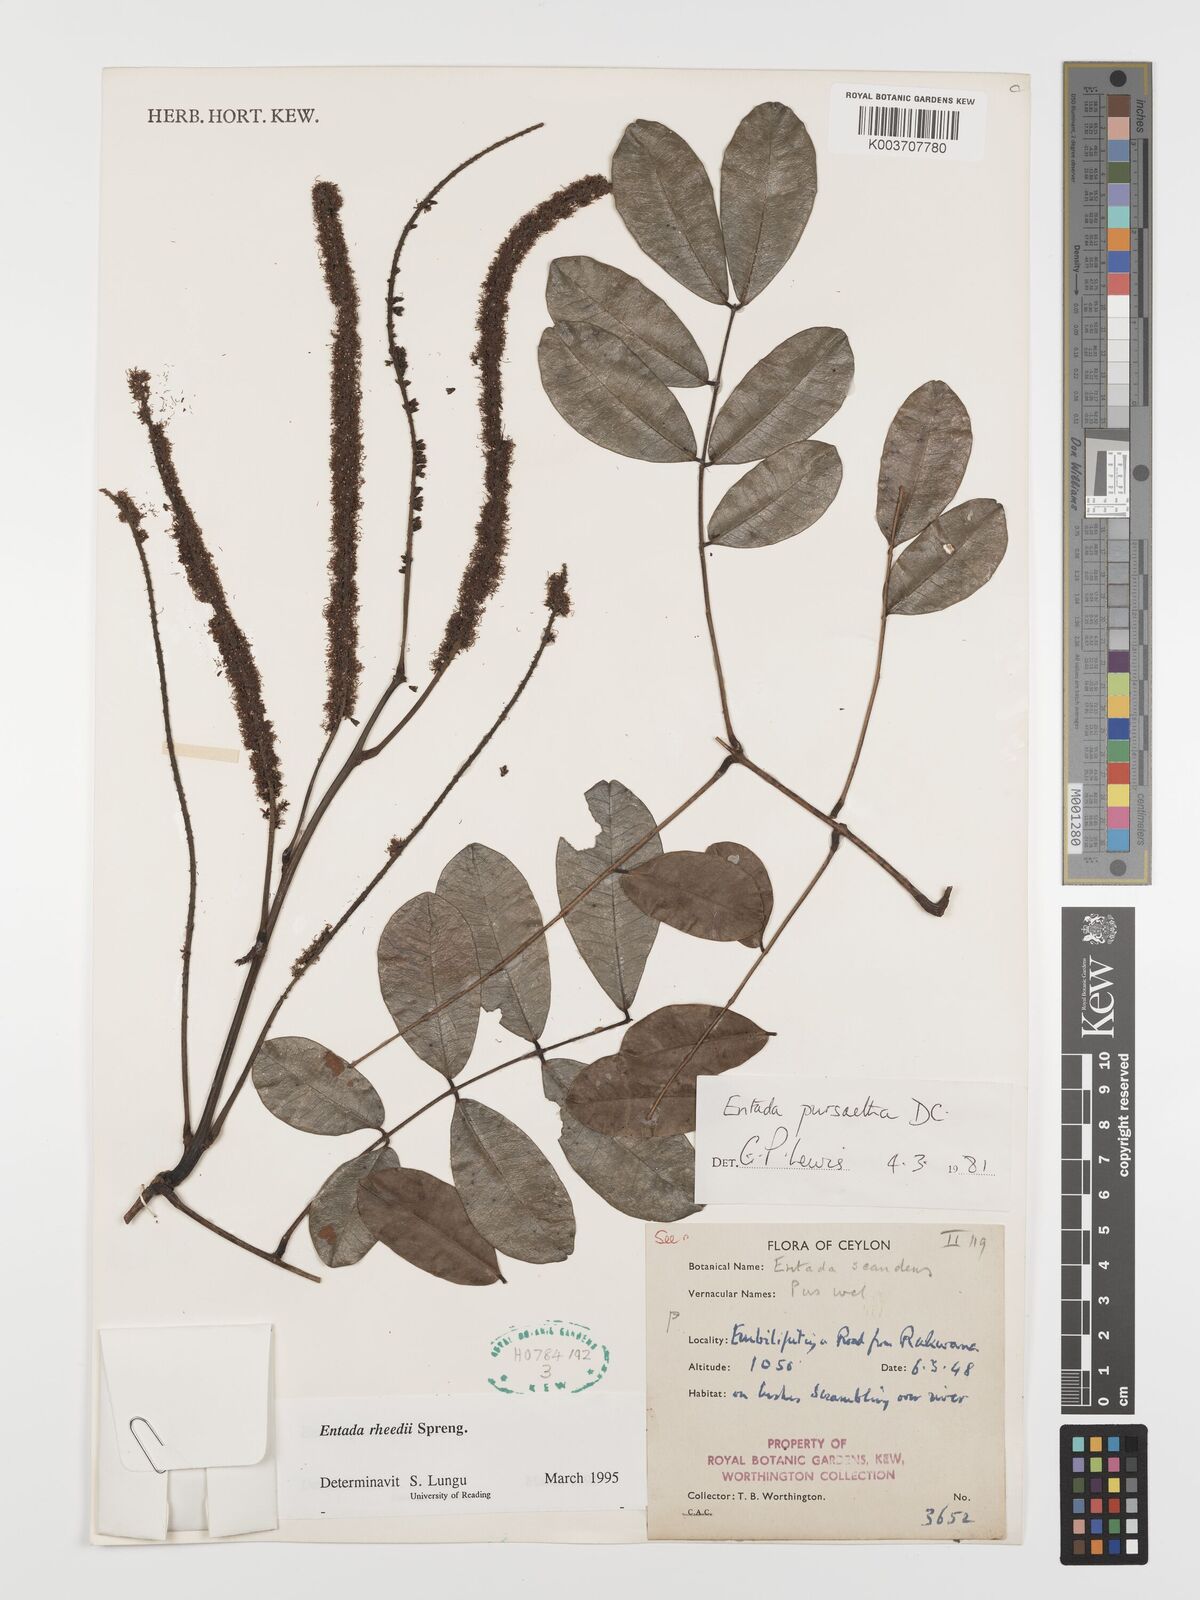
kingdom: Plantae
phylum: Tracheophyta
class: Magnoliopsida
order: Fabales
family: Fabaceae
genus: Entada
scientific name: Entada rheedei
